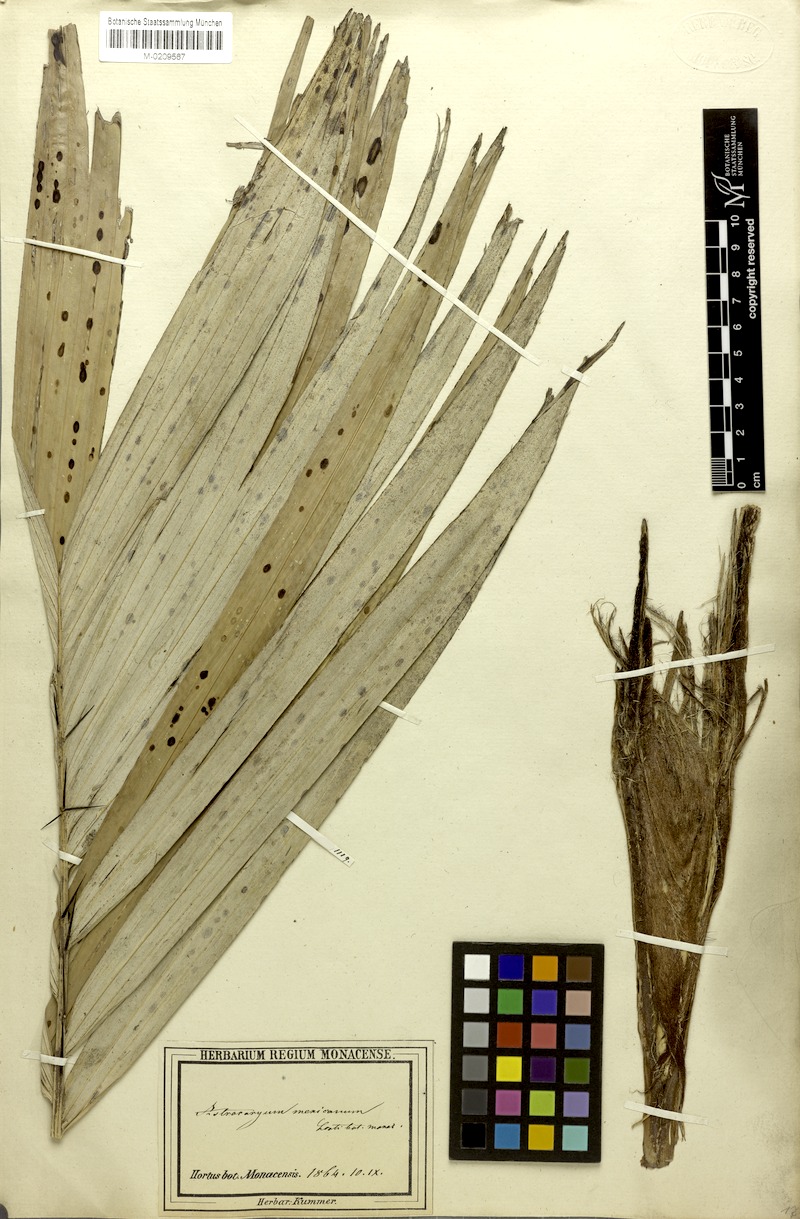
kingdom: Plantae
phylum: Tracheophyta
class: Liliopsida
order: Arecales
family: Arecaceae
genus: Astrocaryum
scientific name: Astrocaryum mexicanum
